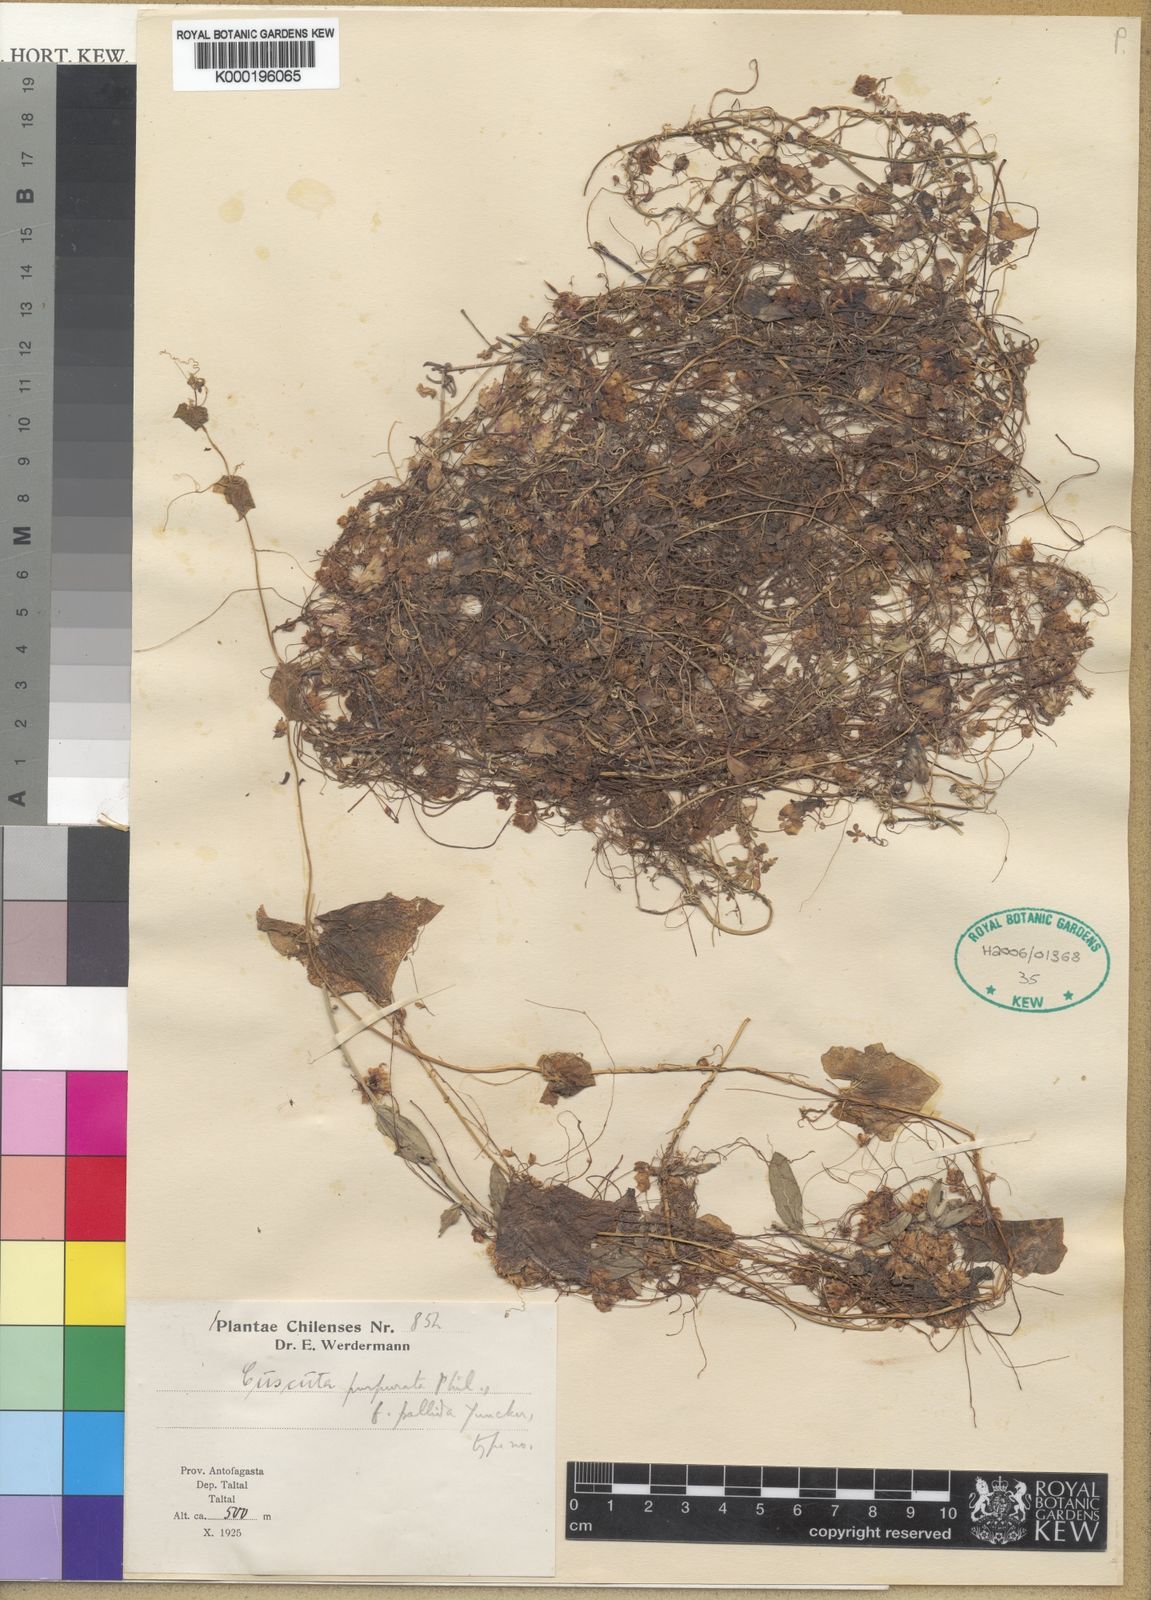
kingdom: Plantae
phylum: Tracheophyta
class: Magnoliopsida
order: Solanales
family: Convolvulaceae
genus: Cuscuta
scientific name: Cuscuta purpurata
